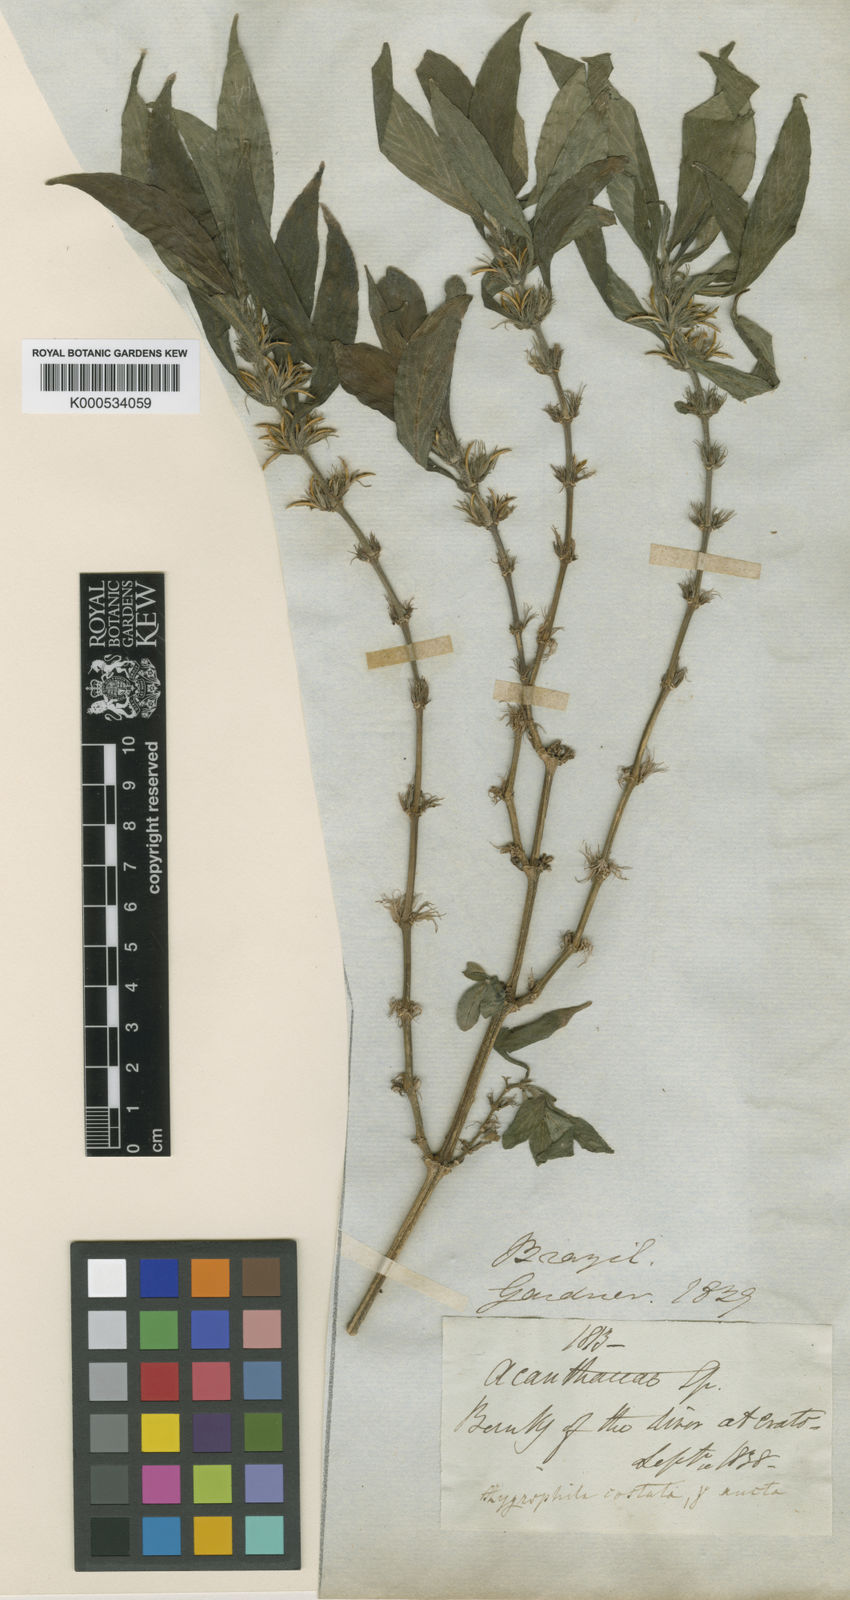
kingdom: Plantae
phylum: Tracheophyta
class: Magnoliopsida
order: Lamiales
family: Acanthaceae
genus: Hygrophila
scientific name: Hygrophila costata
